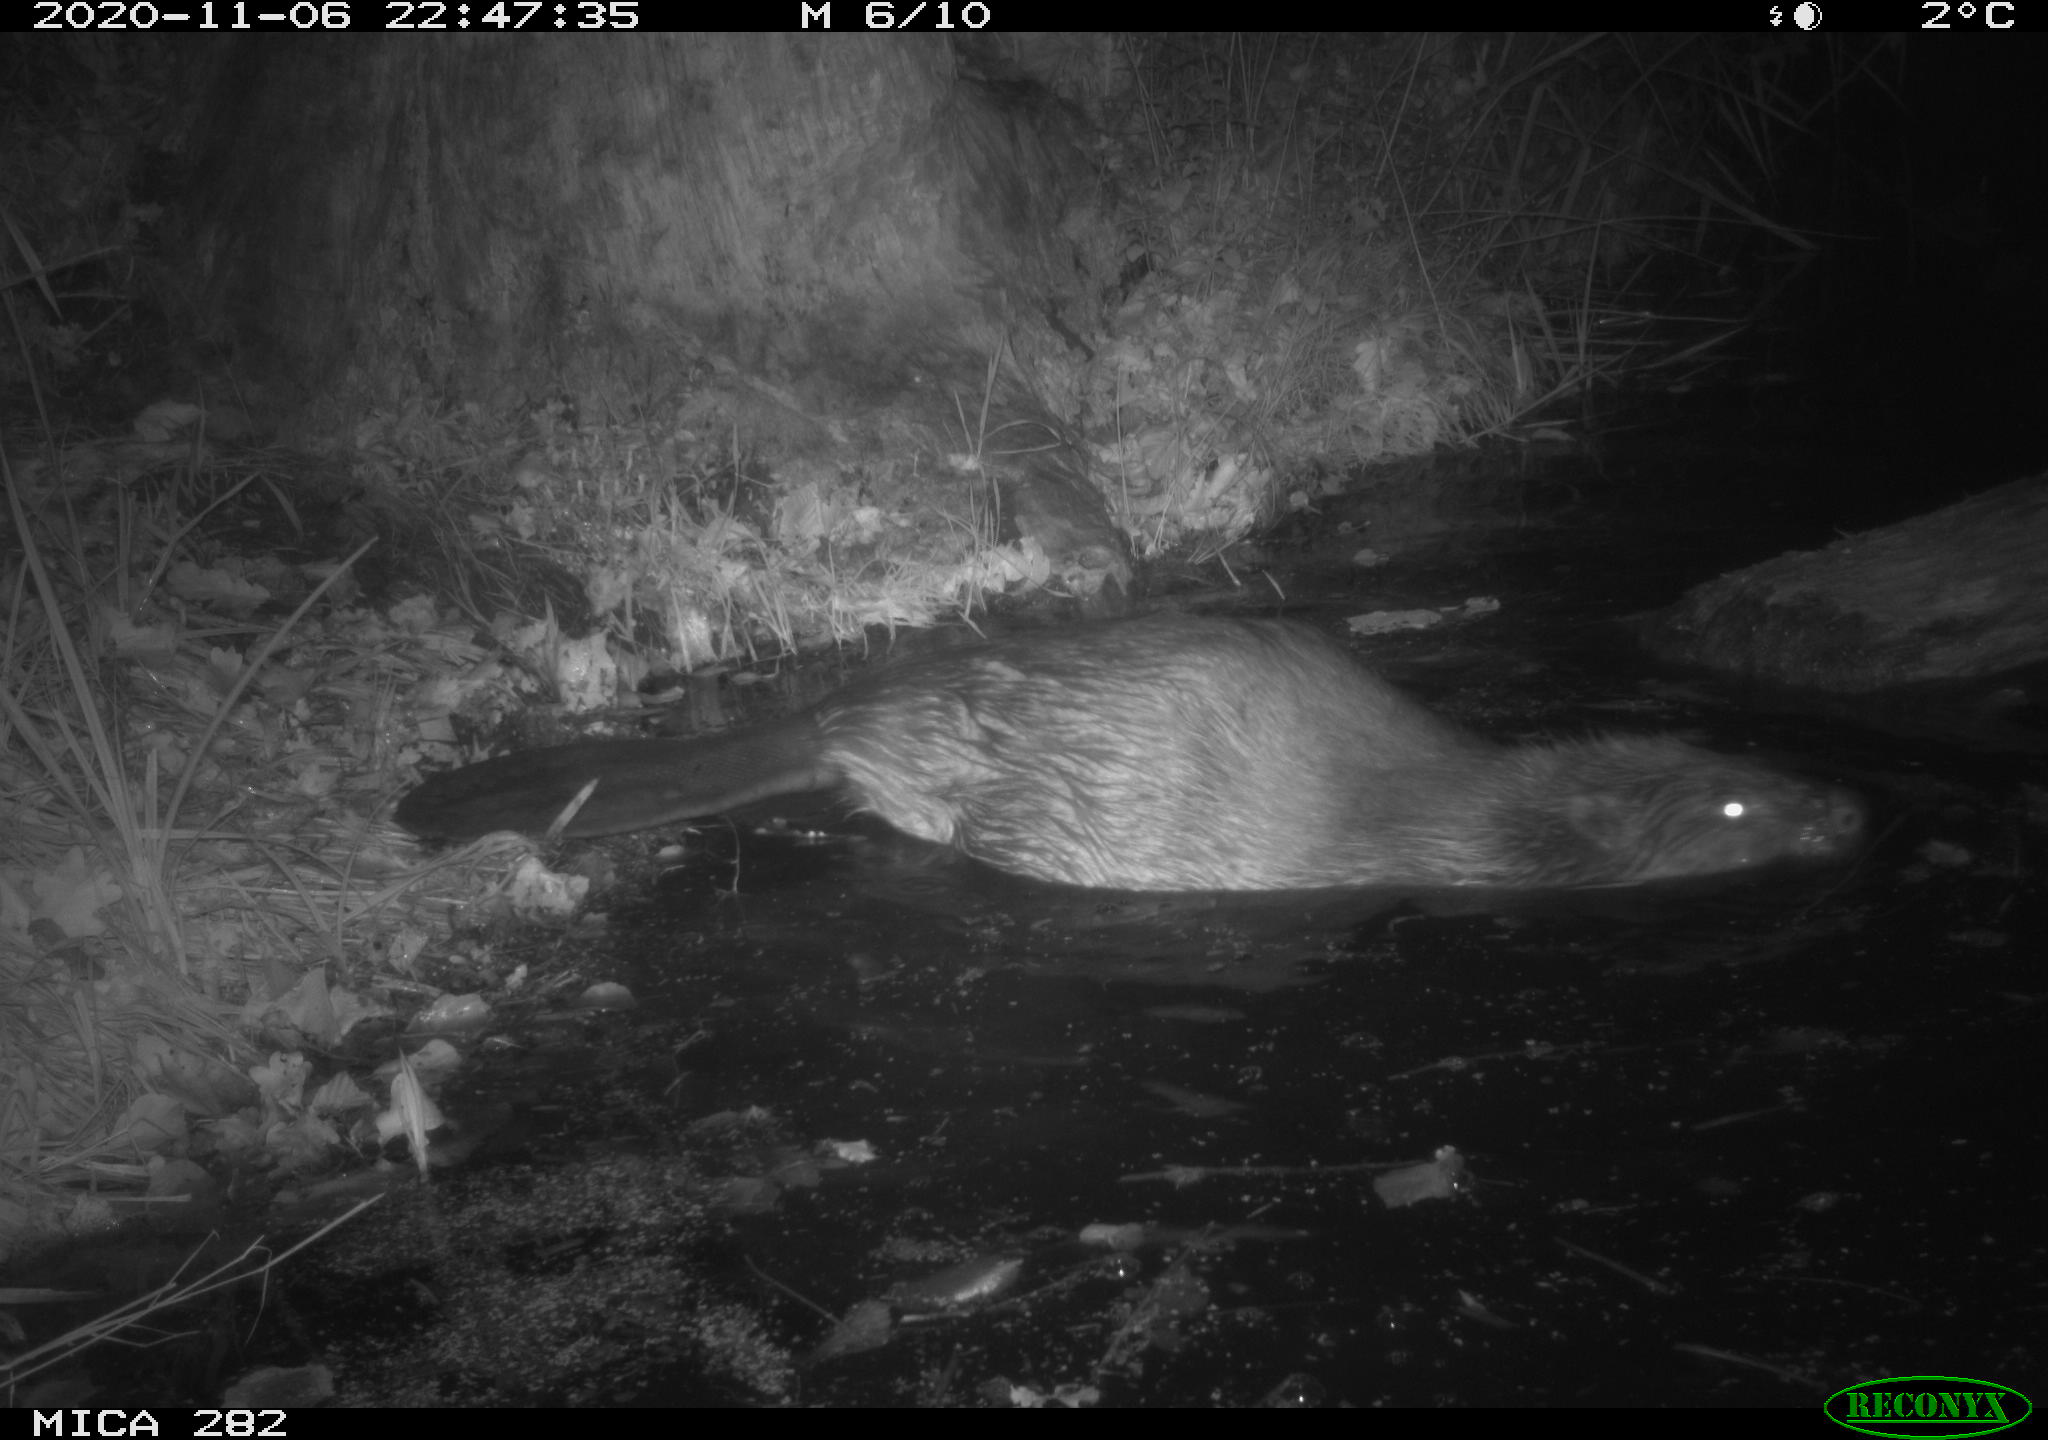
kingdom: Animalia
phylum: Chordata
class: Mammalia
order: Rodentia
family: Castoridae
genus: Castor
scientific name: Castor fiber
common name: Eurasian beaver
